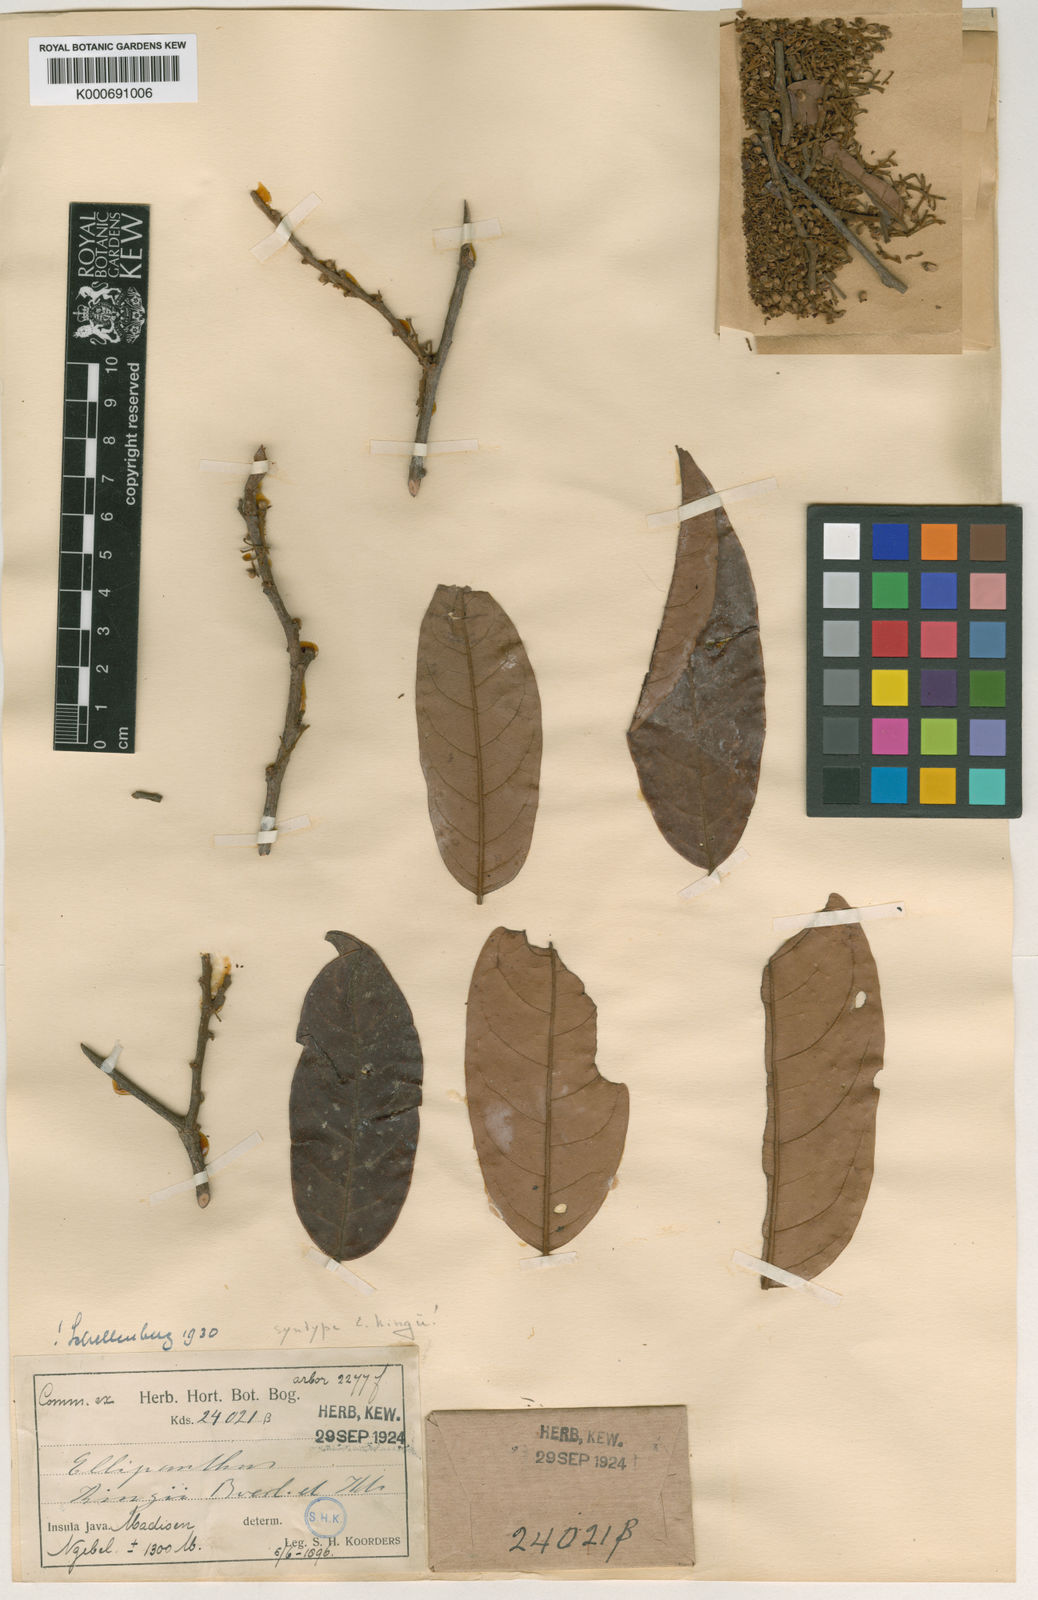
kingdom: Plantae
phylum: Tracheophyta
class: Magnoliopsida
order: Oxalidales
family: Connaraceae
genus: Ellipanthus
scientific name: Ellipanthus tomentosus
